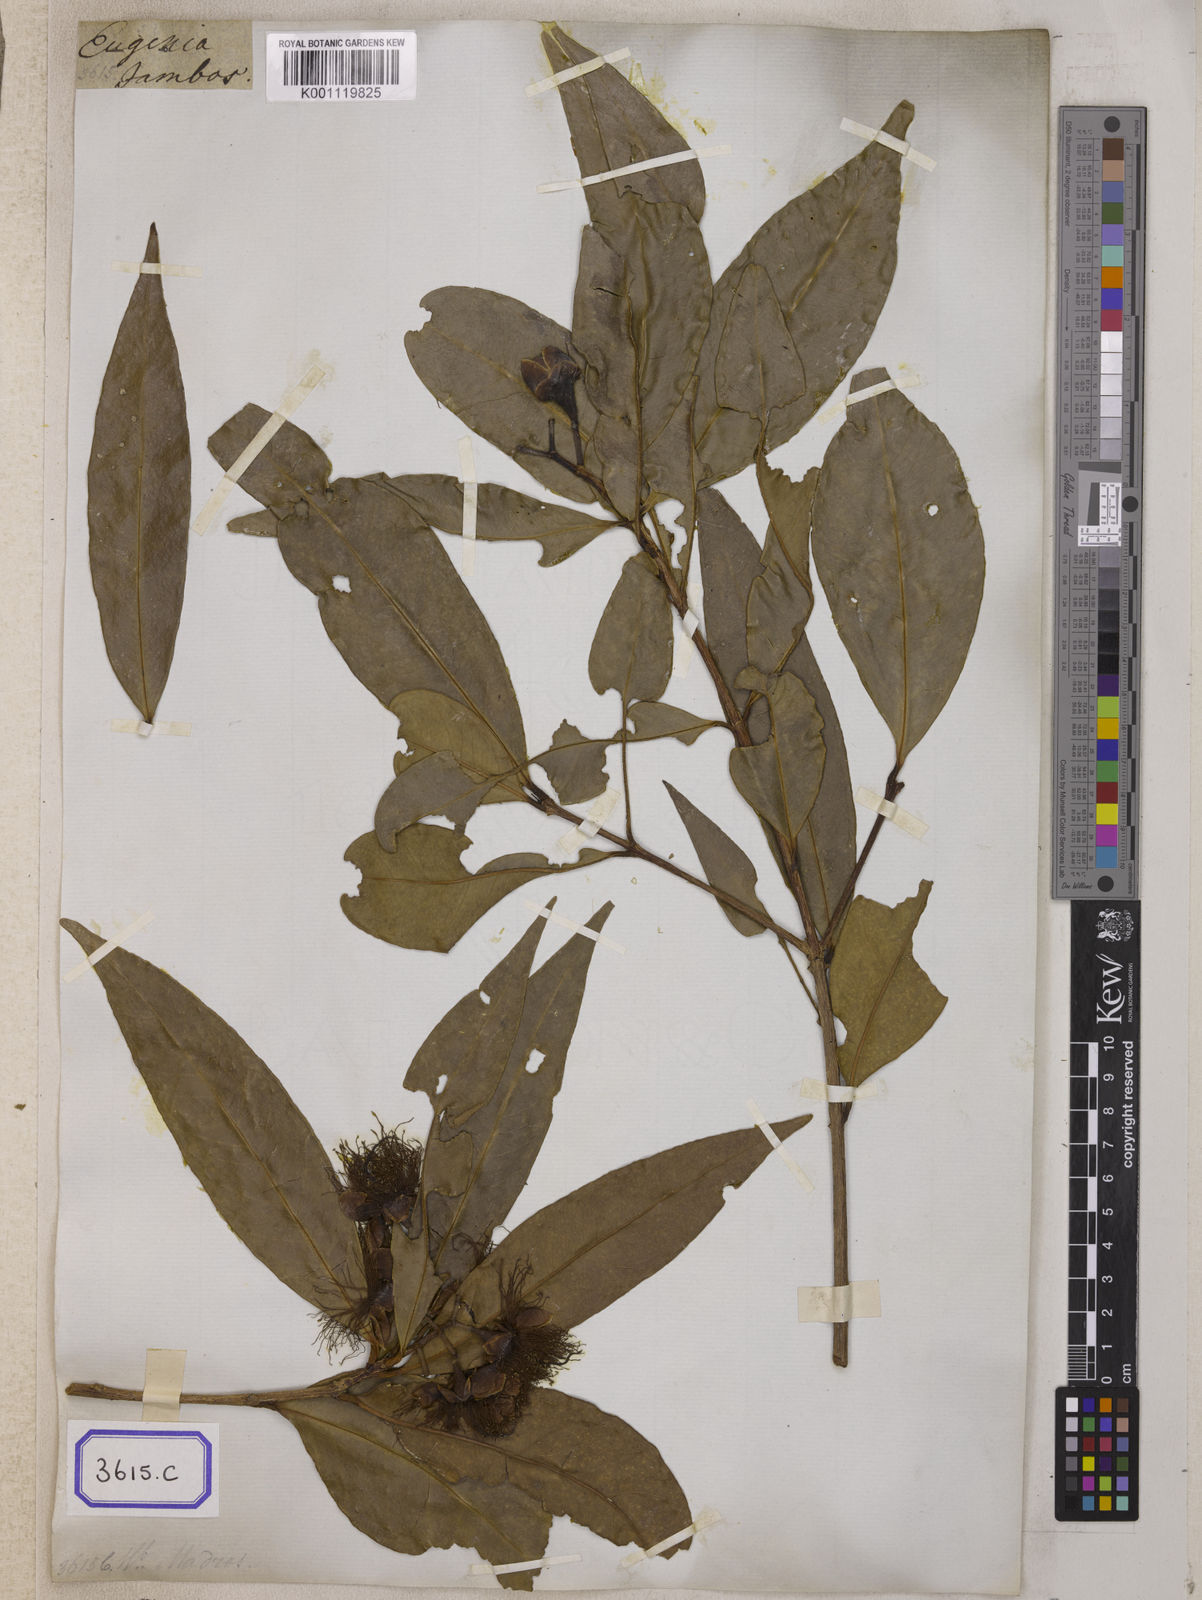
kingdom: Plantae
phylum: Tracheophyta
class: Magnoliopsida
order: Myrtales
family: Myrtaceae
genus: Syzygium
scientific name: Syzygium jambos
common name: Malabar plum
